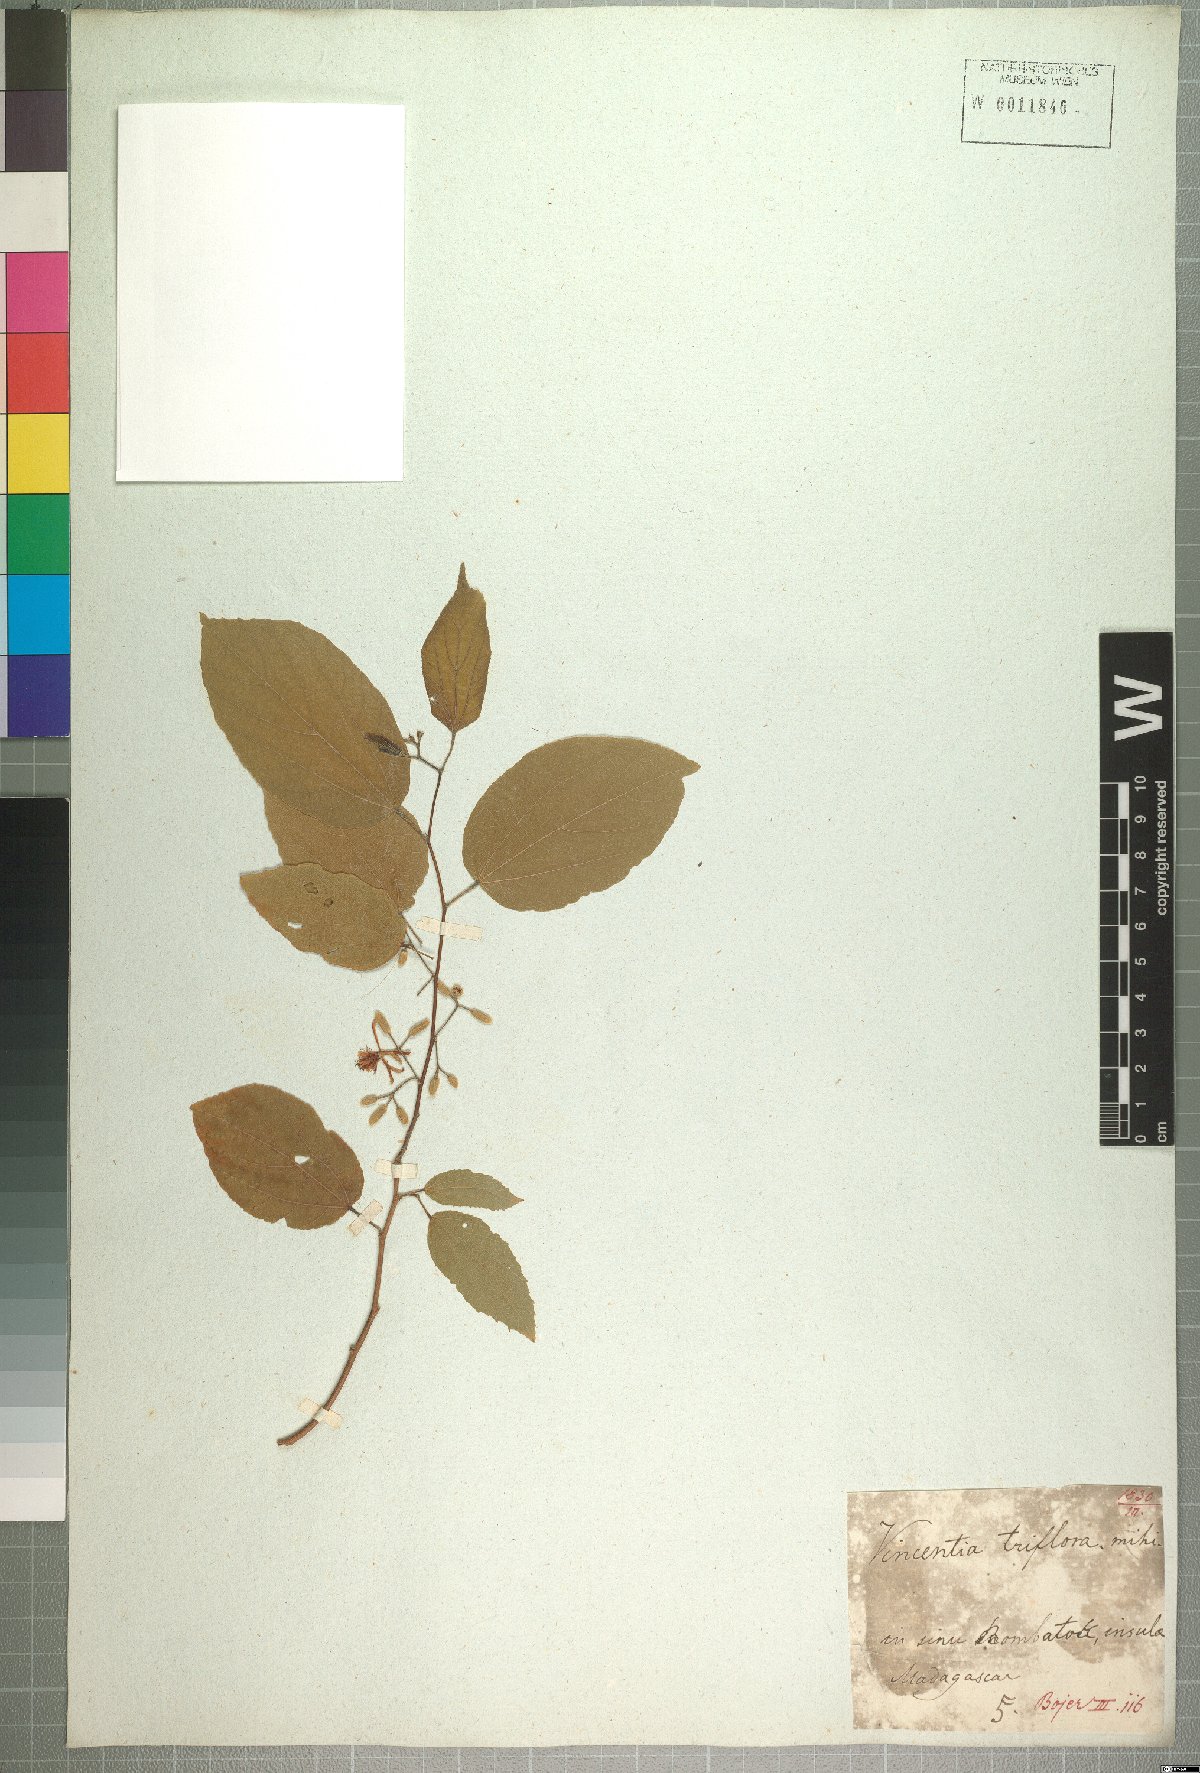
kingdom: Plantae
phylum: Tracheophyta
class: Magnoliopsida
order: Malvales
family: Malvaceae
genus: Grewia
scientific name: Grewia triflora
